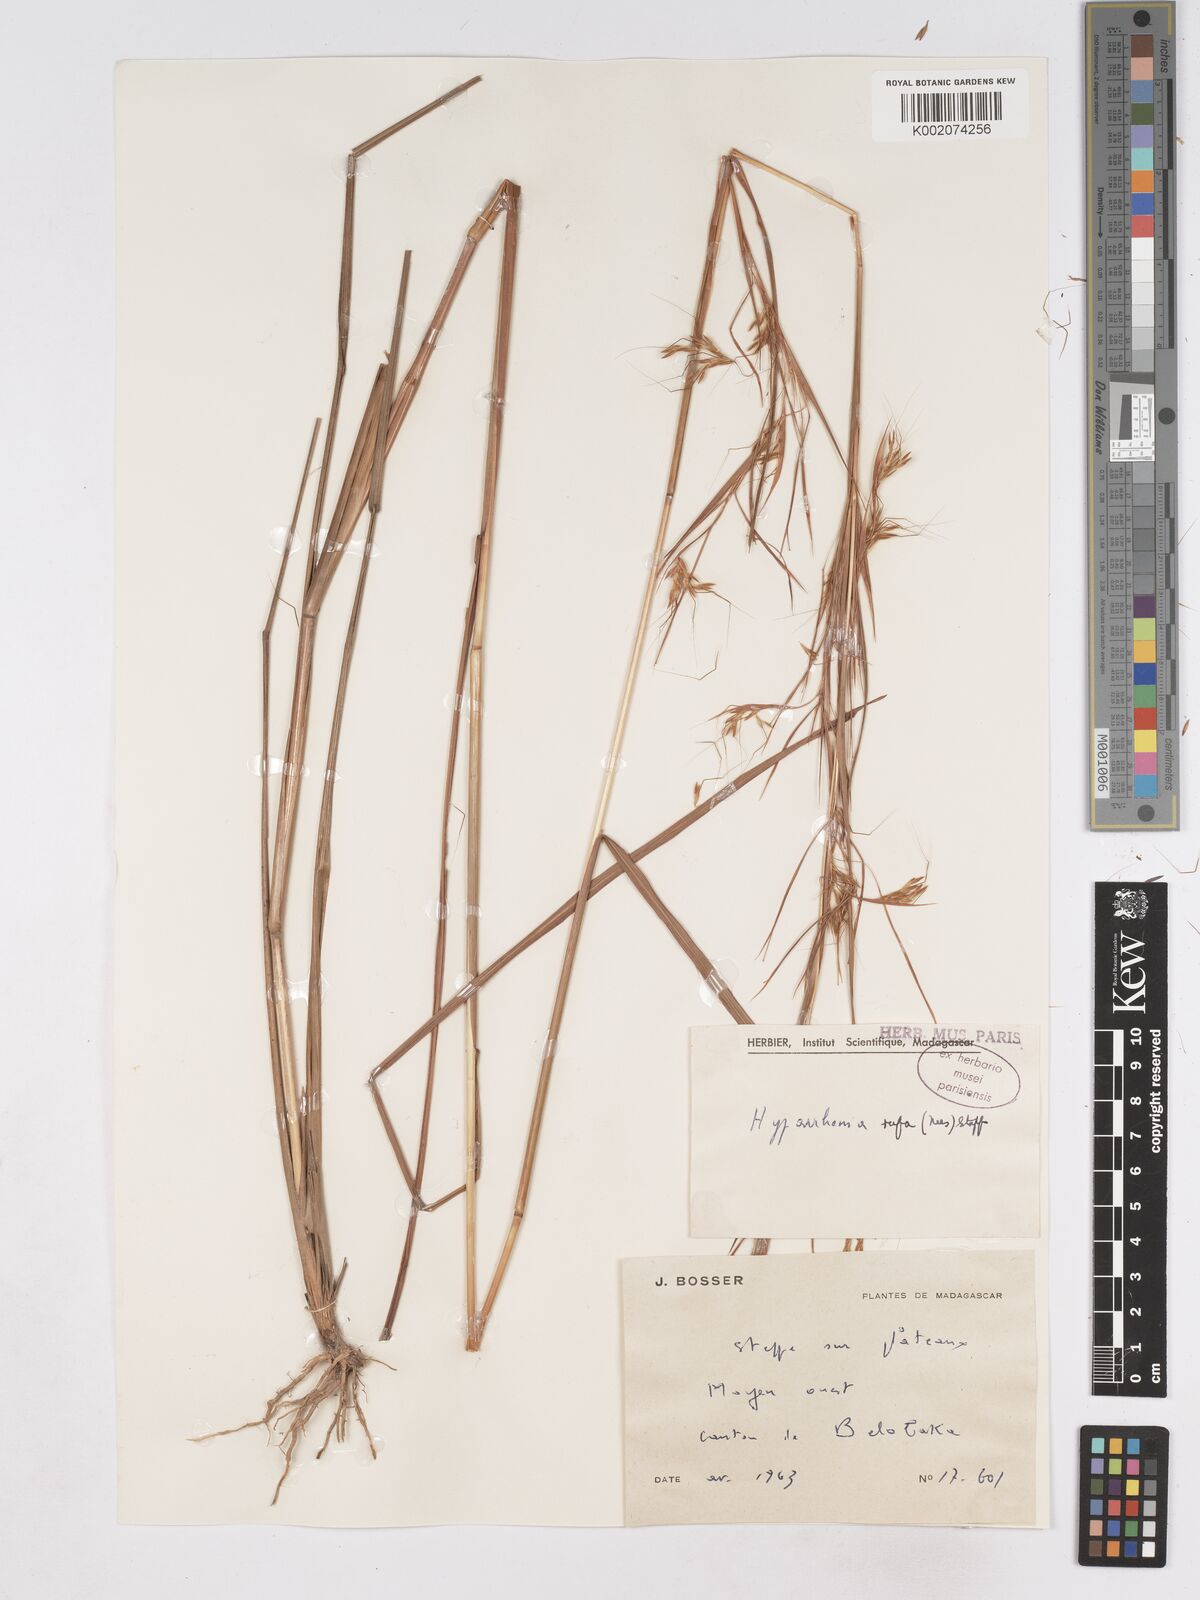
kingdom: Plantae
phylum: Tracheophyta
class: Liliopsida
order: Poales
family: Poaceae
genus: Hyparrhenia
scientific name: Hyparrhenia rufa
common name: Jaraguagrass
